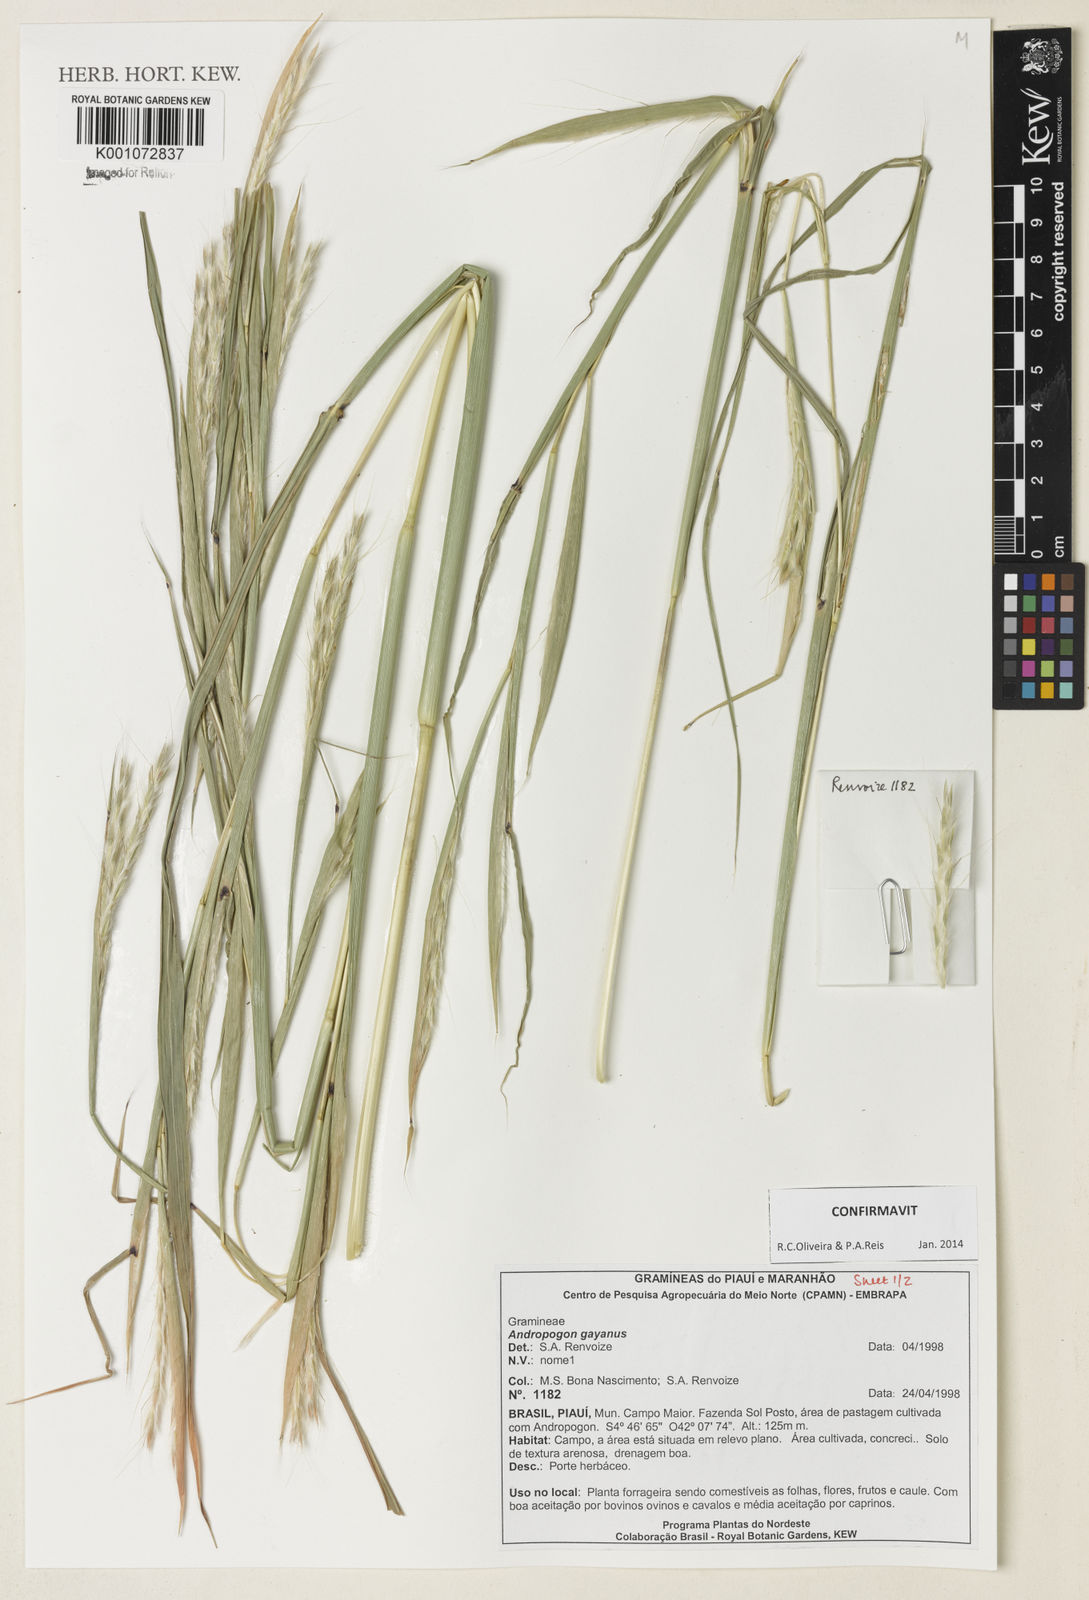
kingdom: Plantae
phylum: Tracheophyta
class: Liliopsida
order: Poales
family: Poaceae
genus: Andropogon
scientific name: Andropogon gayanus
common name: Tambuki grass
